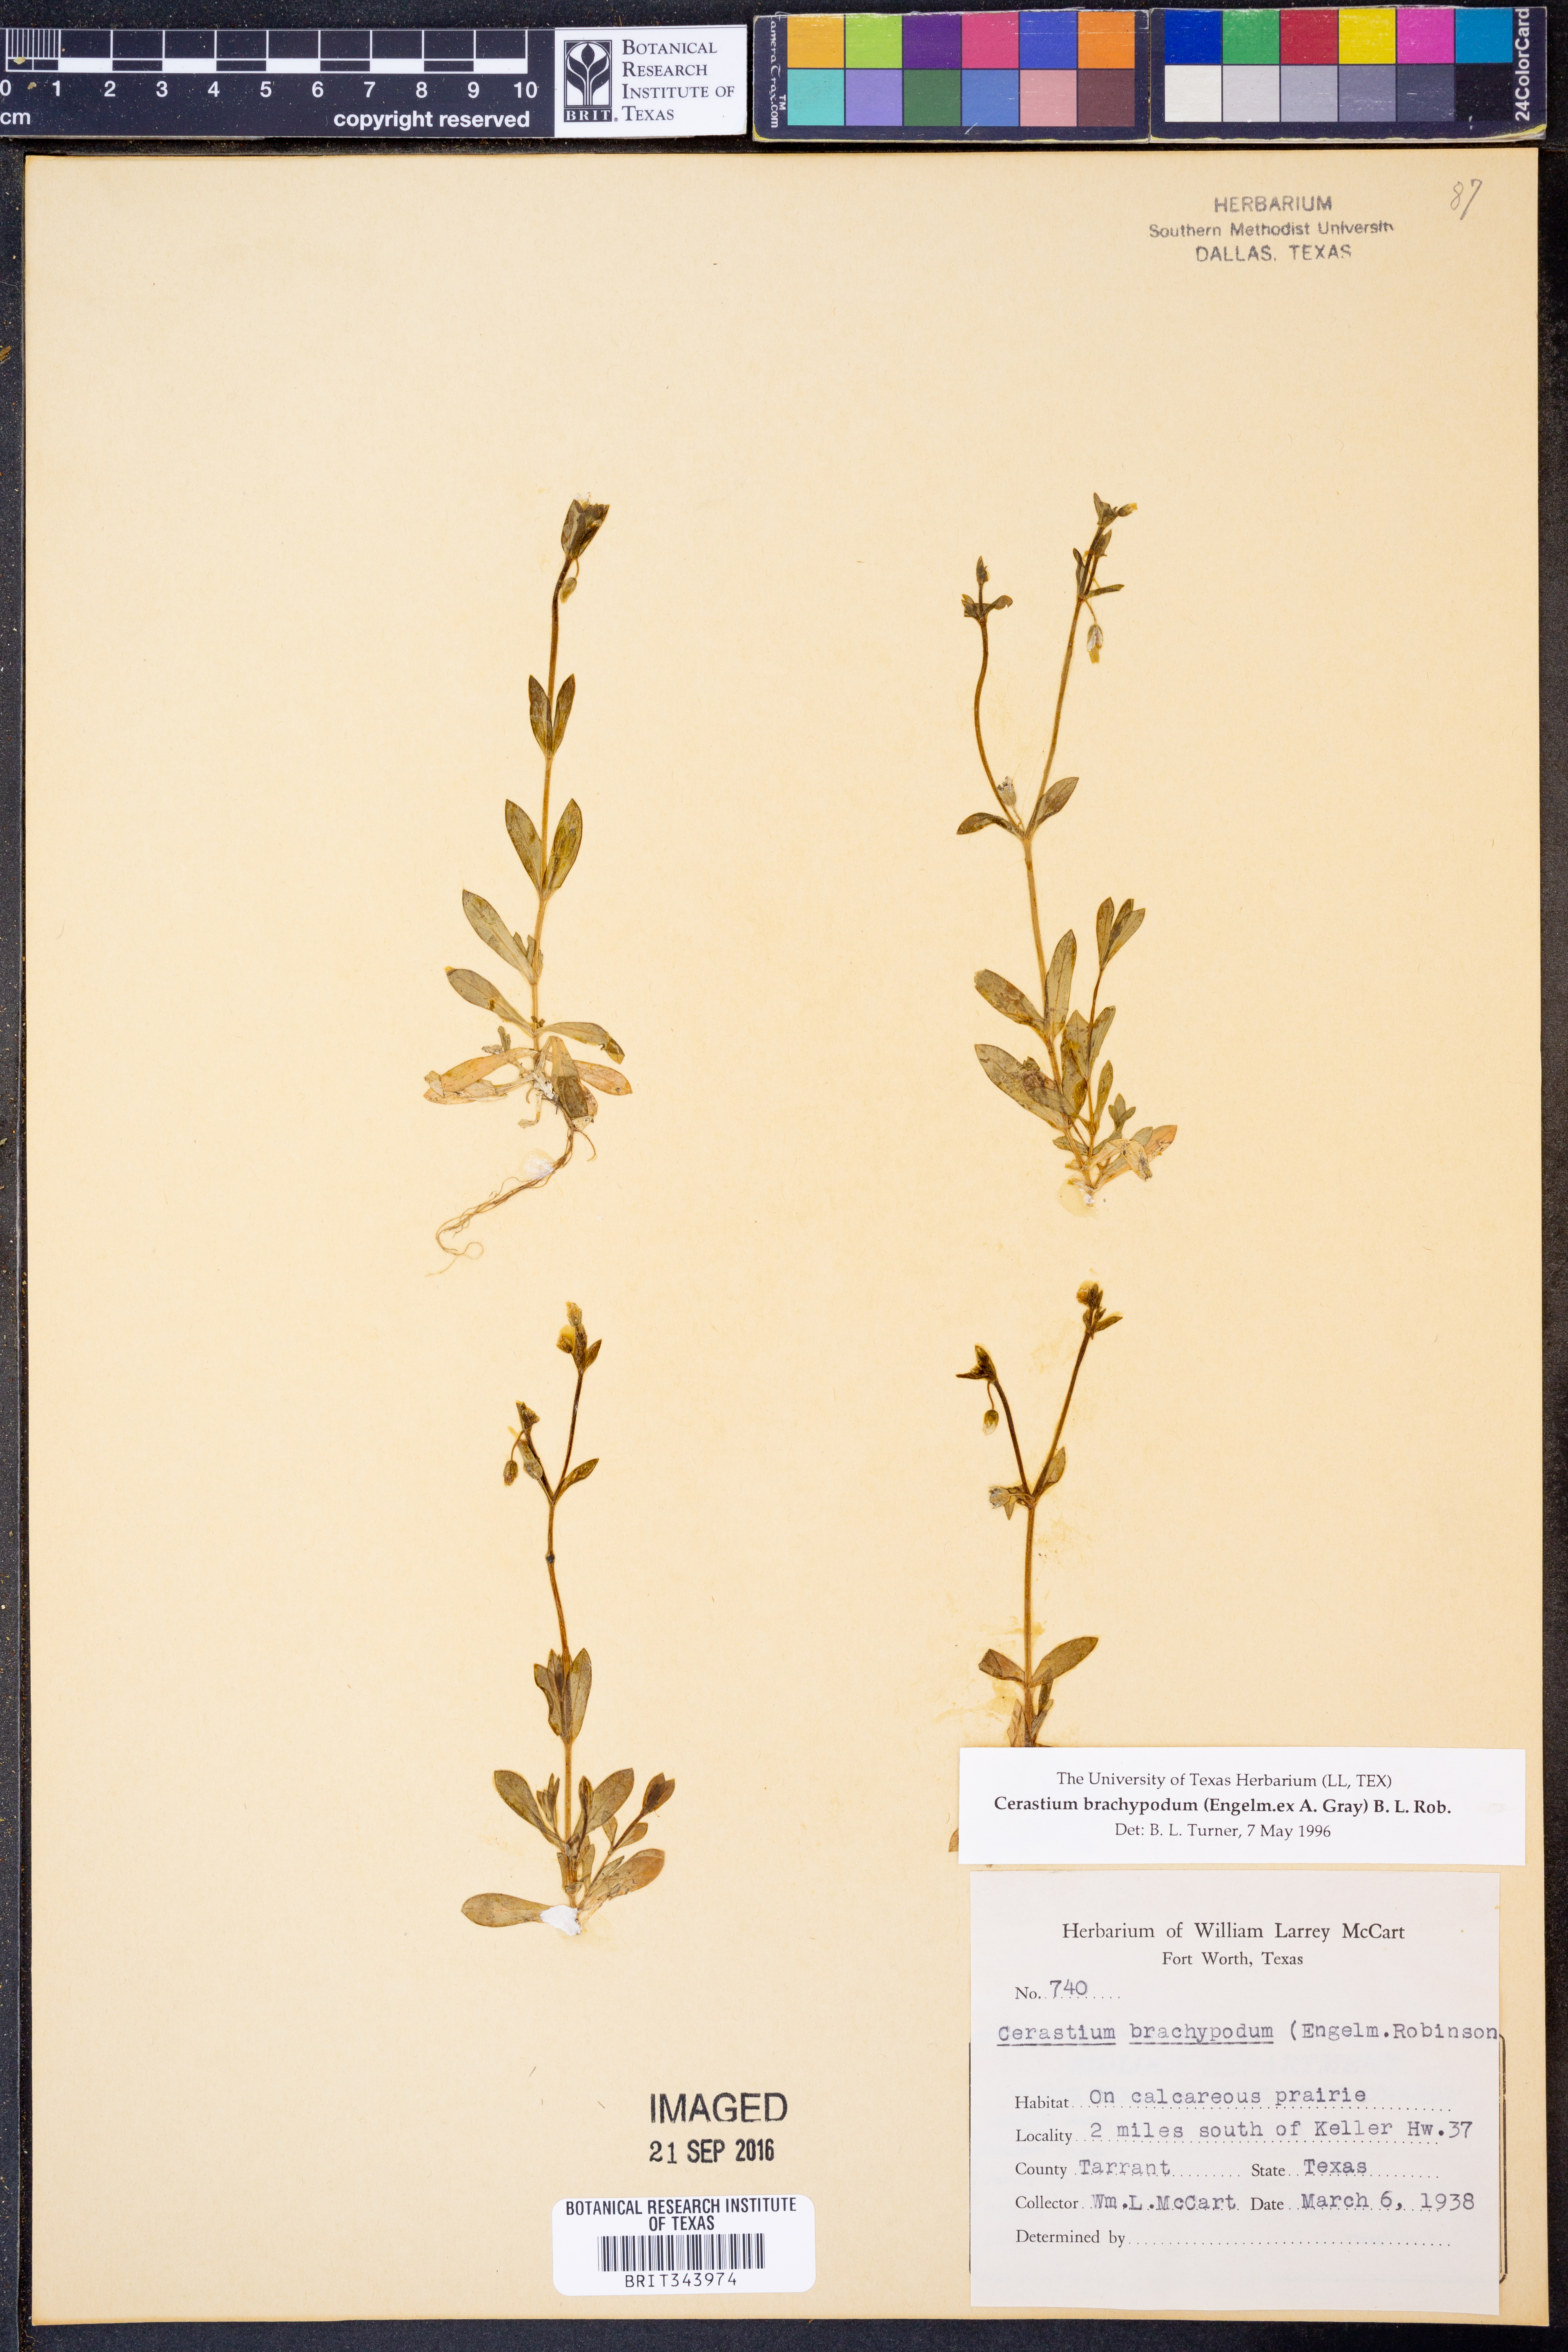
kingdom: Plantae
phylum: Tracheophyta
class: Magnoliopsida
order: Caryophyllales
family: Caryophyllaceae
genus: Cerastium
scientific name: Cerastium brachypodum
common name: Short-pedicelled nodding chickweed
